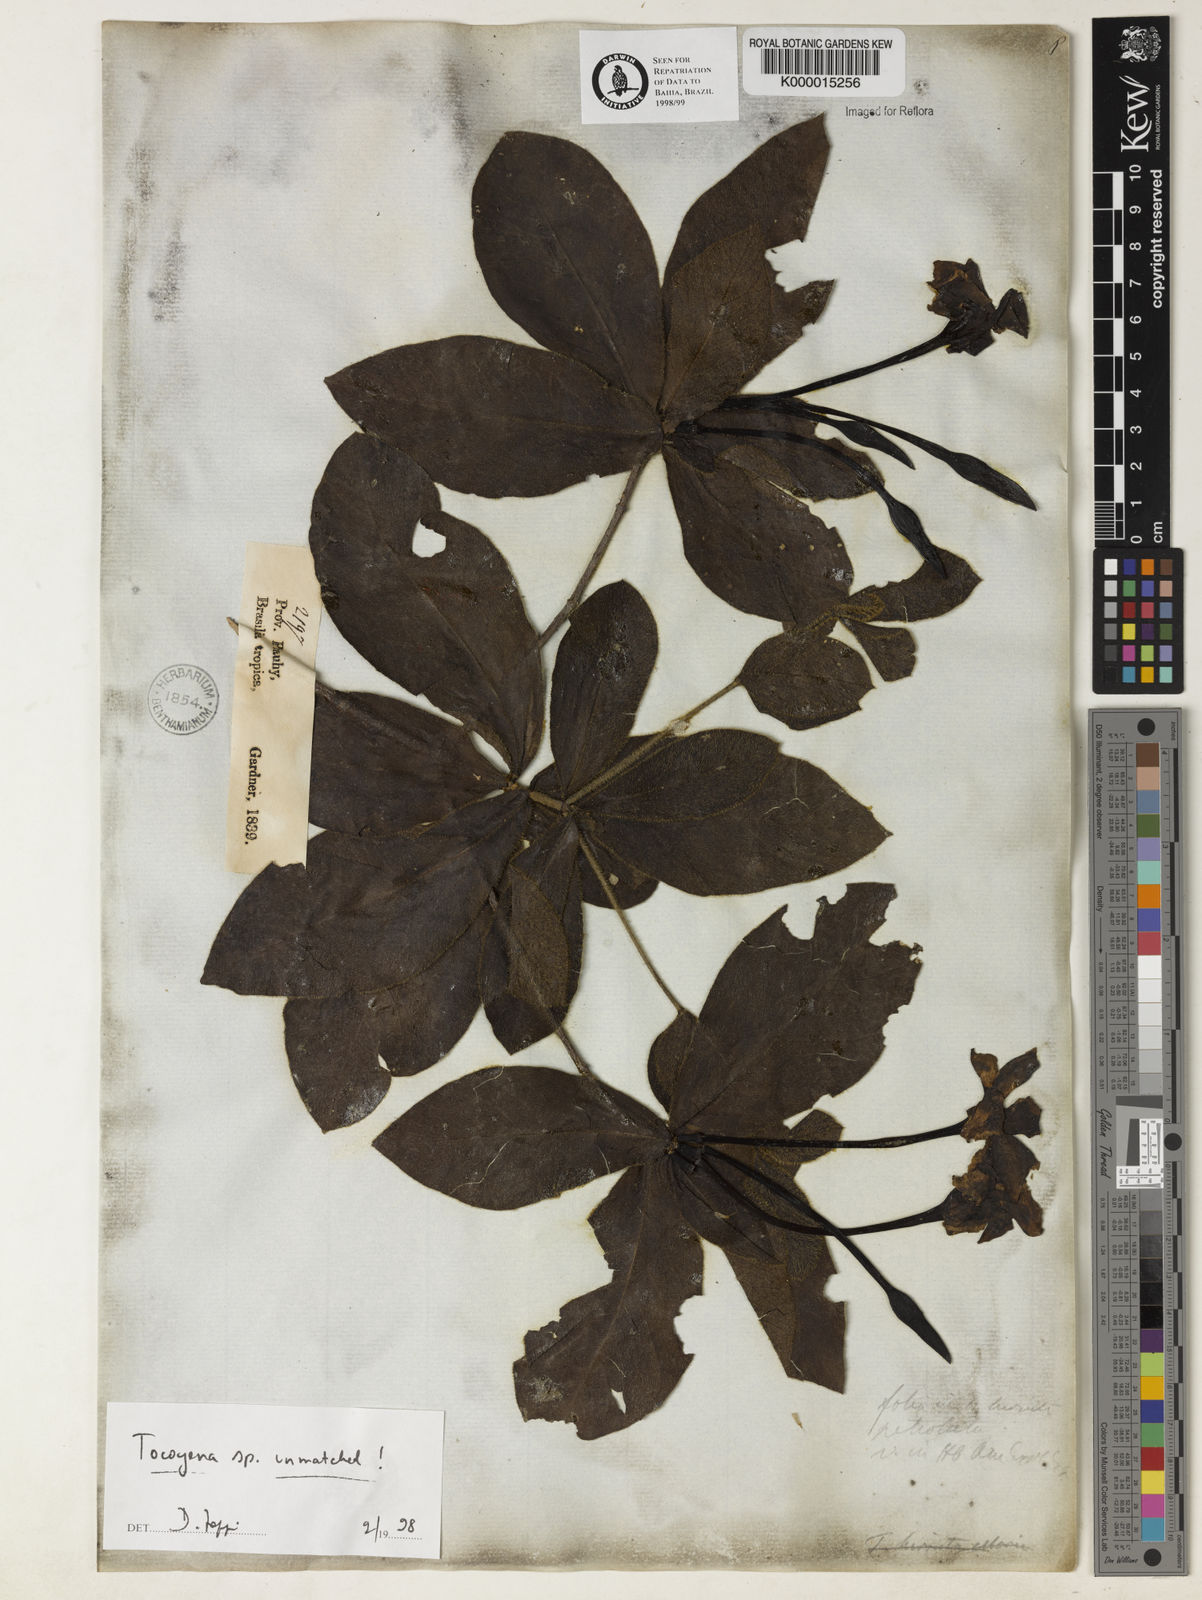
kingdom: Plantae
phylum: Tracheophyta
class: Magnoliopsida
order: Gentianales
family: Rubiaceae
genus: Tocoyena
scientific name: Tocoyena
